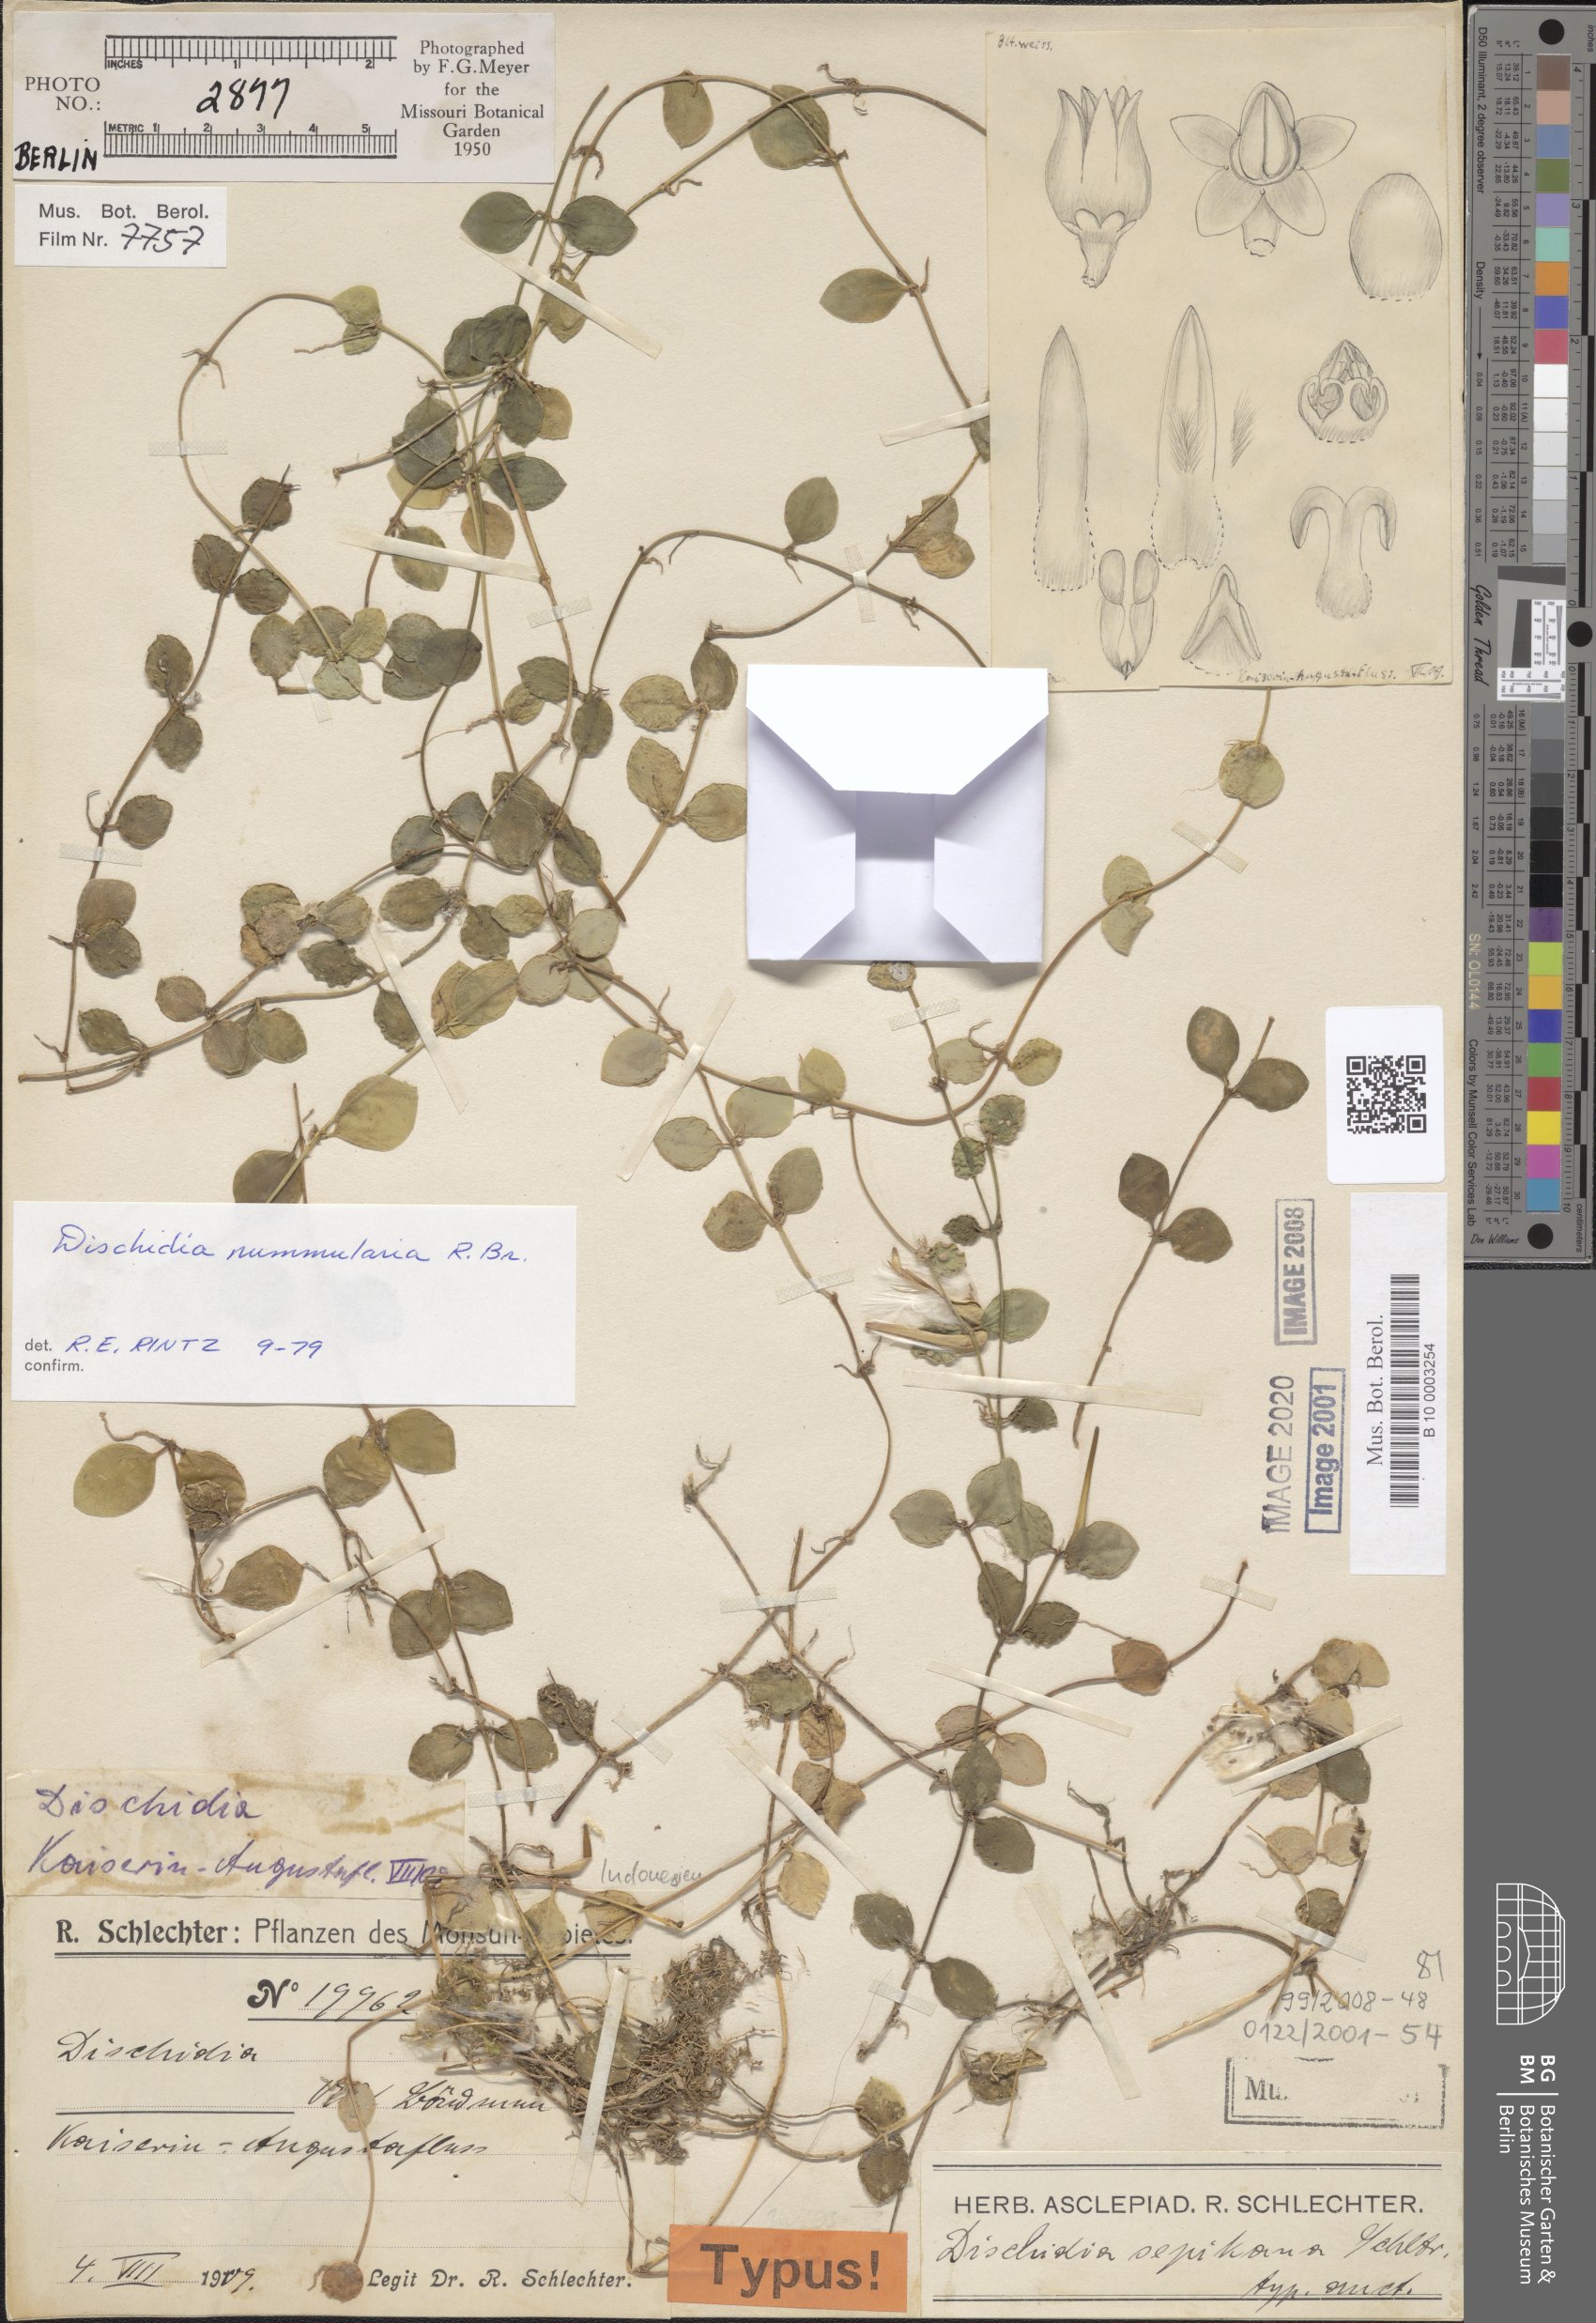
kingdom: Plantae
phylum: Tracheophyta
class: Magnoliopsida
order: Gentianales
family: Apocynaceae
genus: Dischidia
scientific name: Dischidia nummularia
